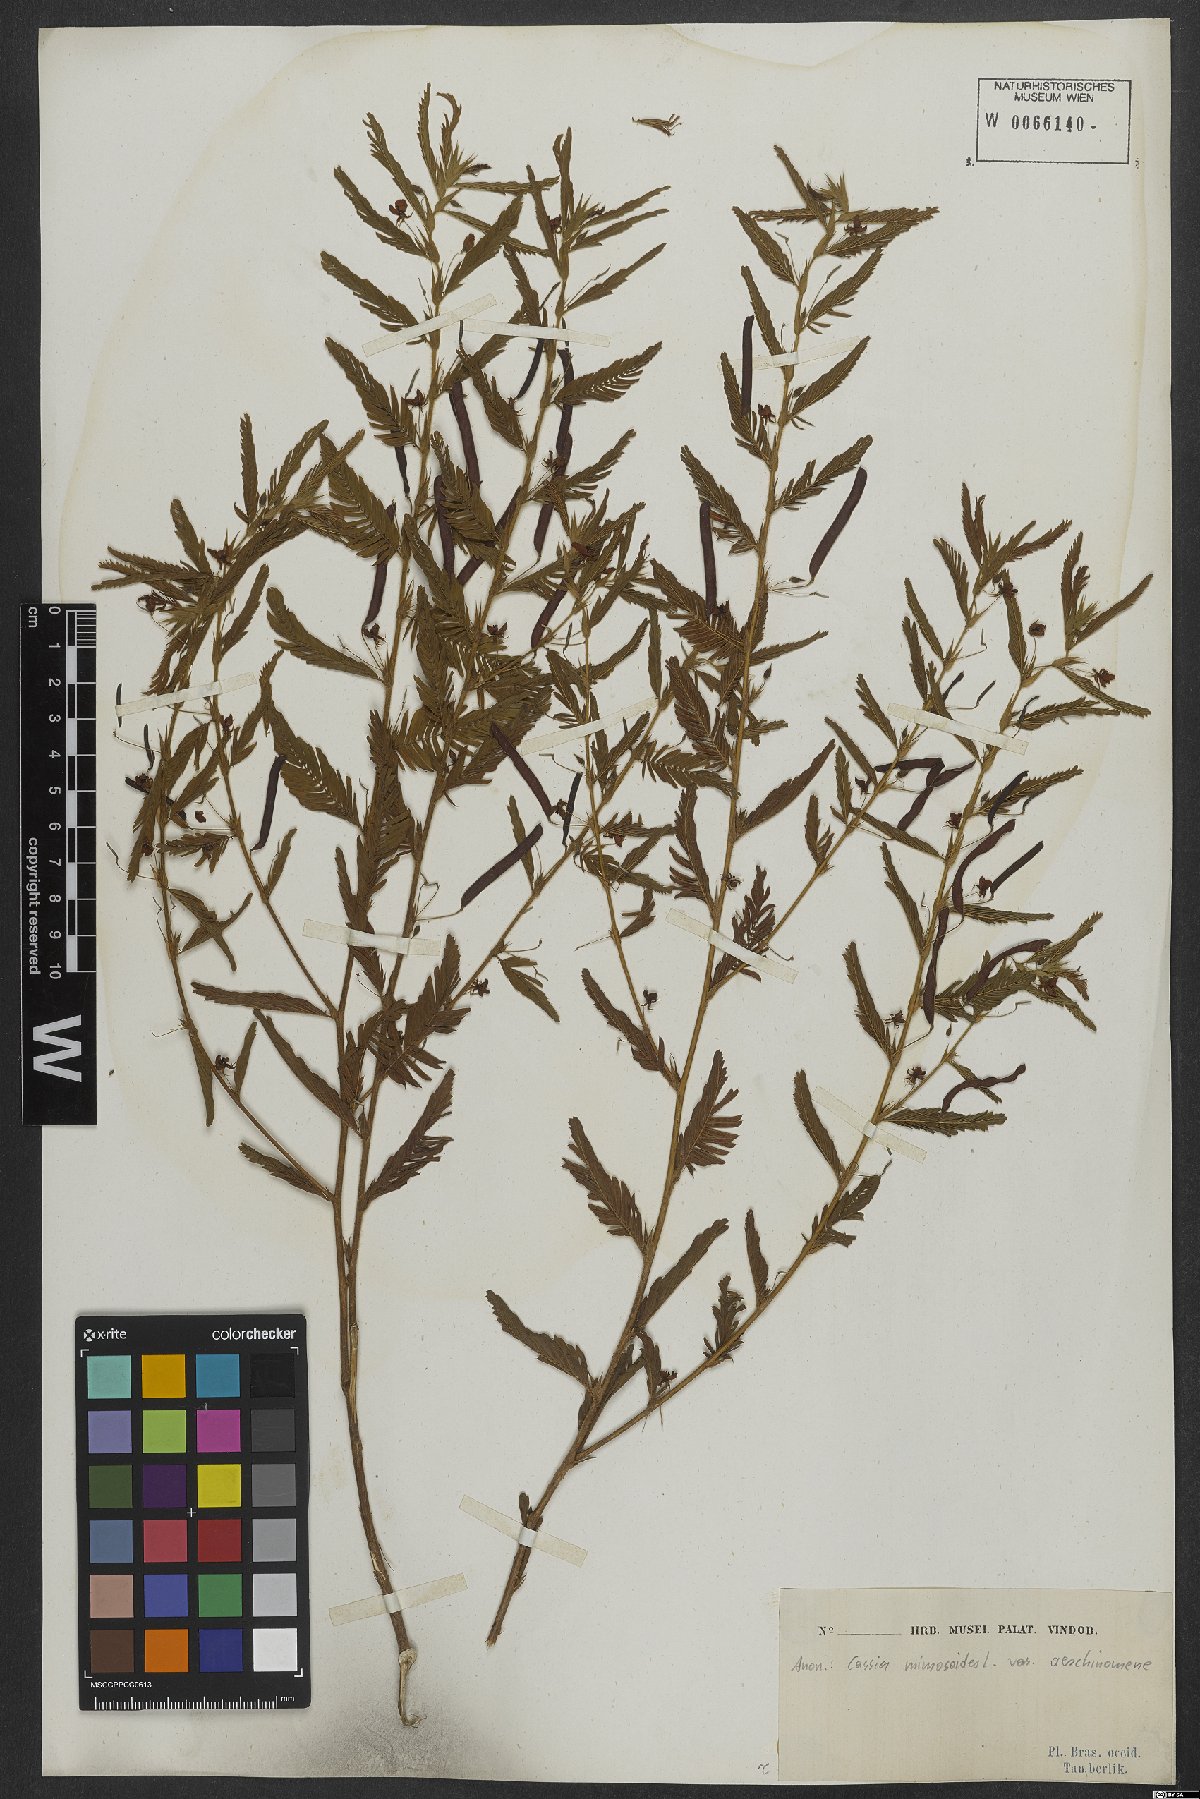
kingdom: Plantae
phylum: Tracheophyta
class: Magnoliopsida
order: Fabales
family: Fabaceae
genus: Chamaecrista
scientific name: Chamaecrista nictitans
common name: Sensitive cassia
